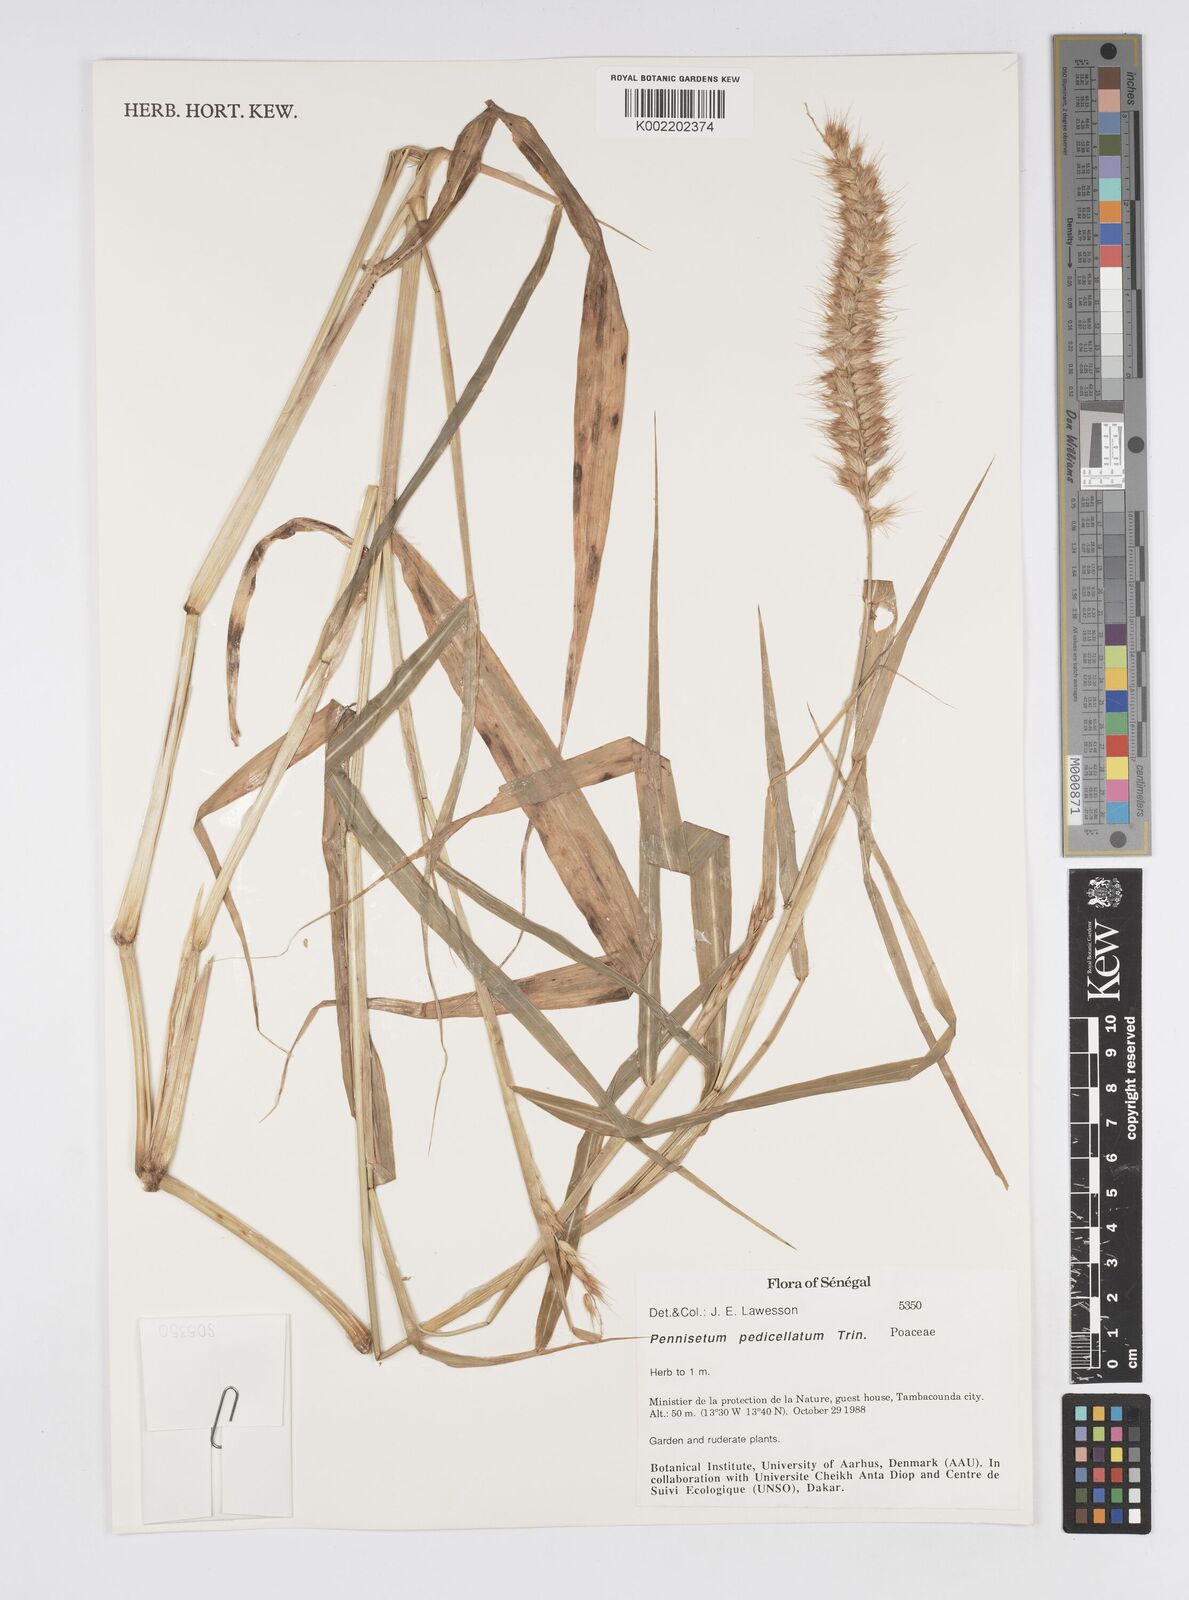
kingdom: Plantae
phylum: Tracheophyta
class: Liliopsida
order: Poales
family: Poaceae
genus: Cenchrus
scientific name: Cenchrus pedicellatus
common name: Hairy fountain grass
